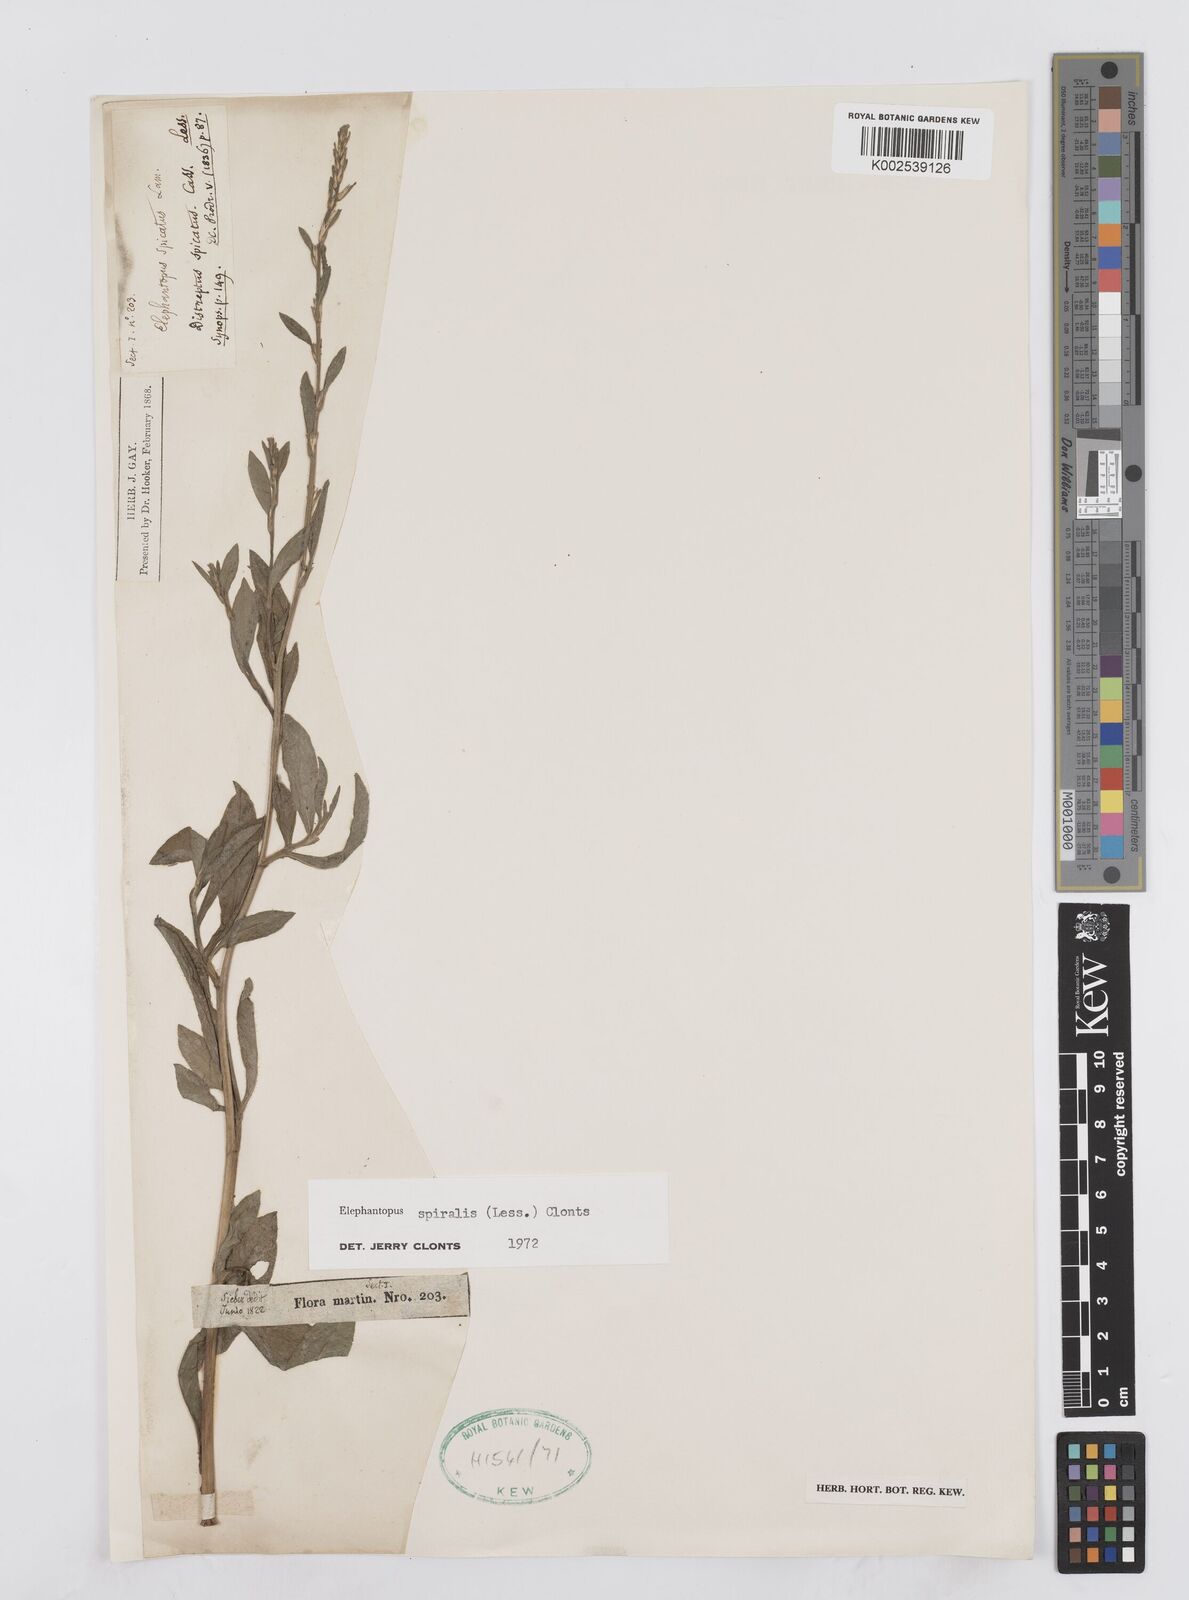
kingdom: Plantae
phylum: Tracheophyta
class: Magnoliopsida
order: Asterales
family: Asteraceae
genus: Pseudelephantopus
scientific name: Pseudelephantopus spiralis
